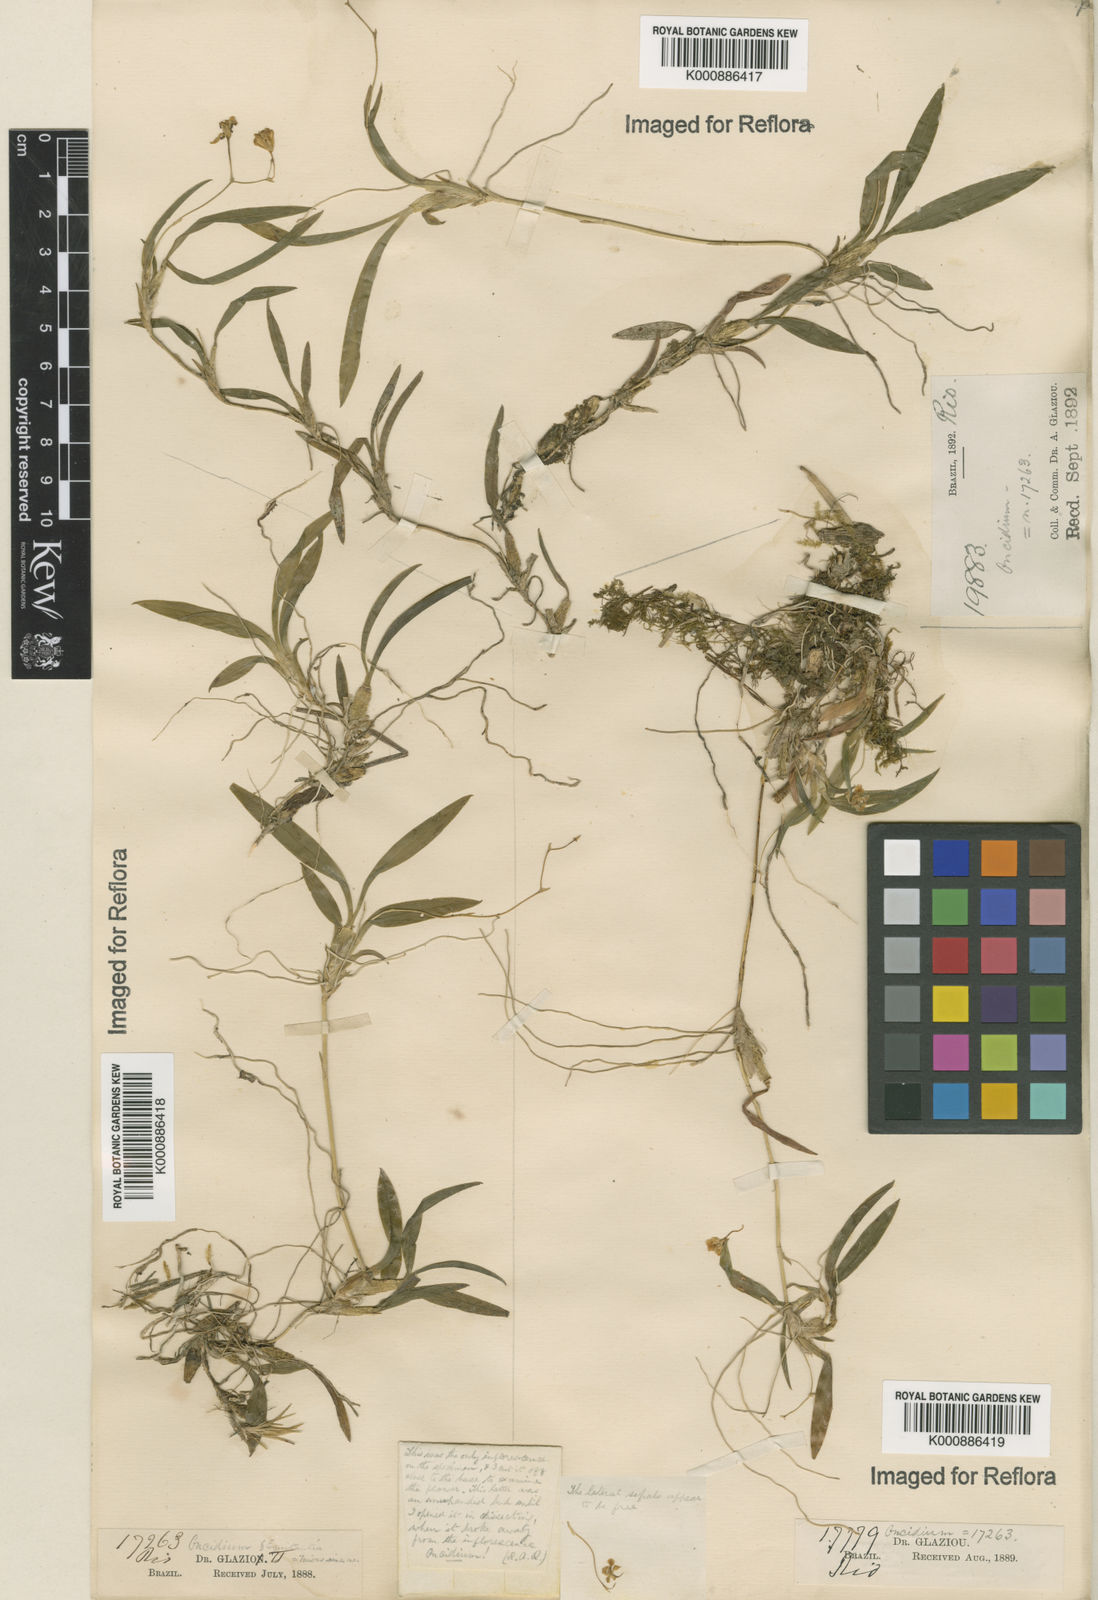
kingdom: Plantae
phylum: Tracheophyta
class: Liliopsida
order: Asparagales
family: Orchidaceae
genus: Gomesa
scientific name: Gomesa microphyta
